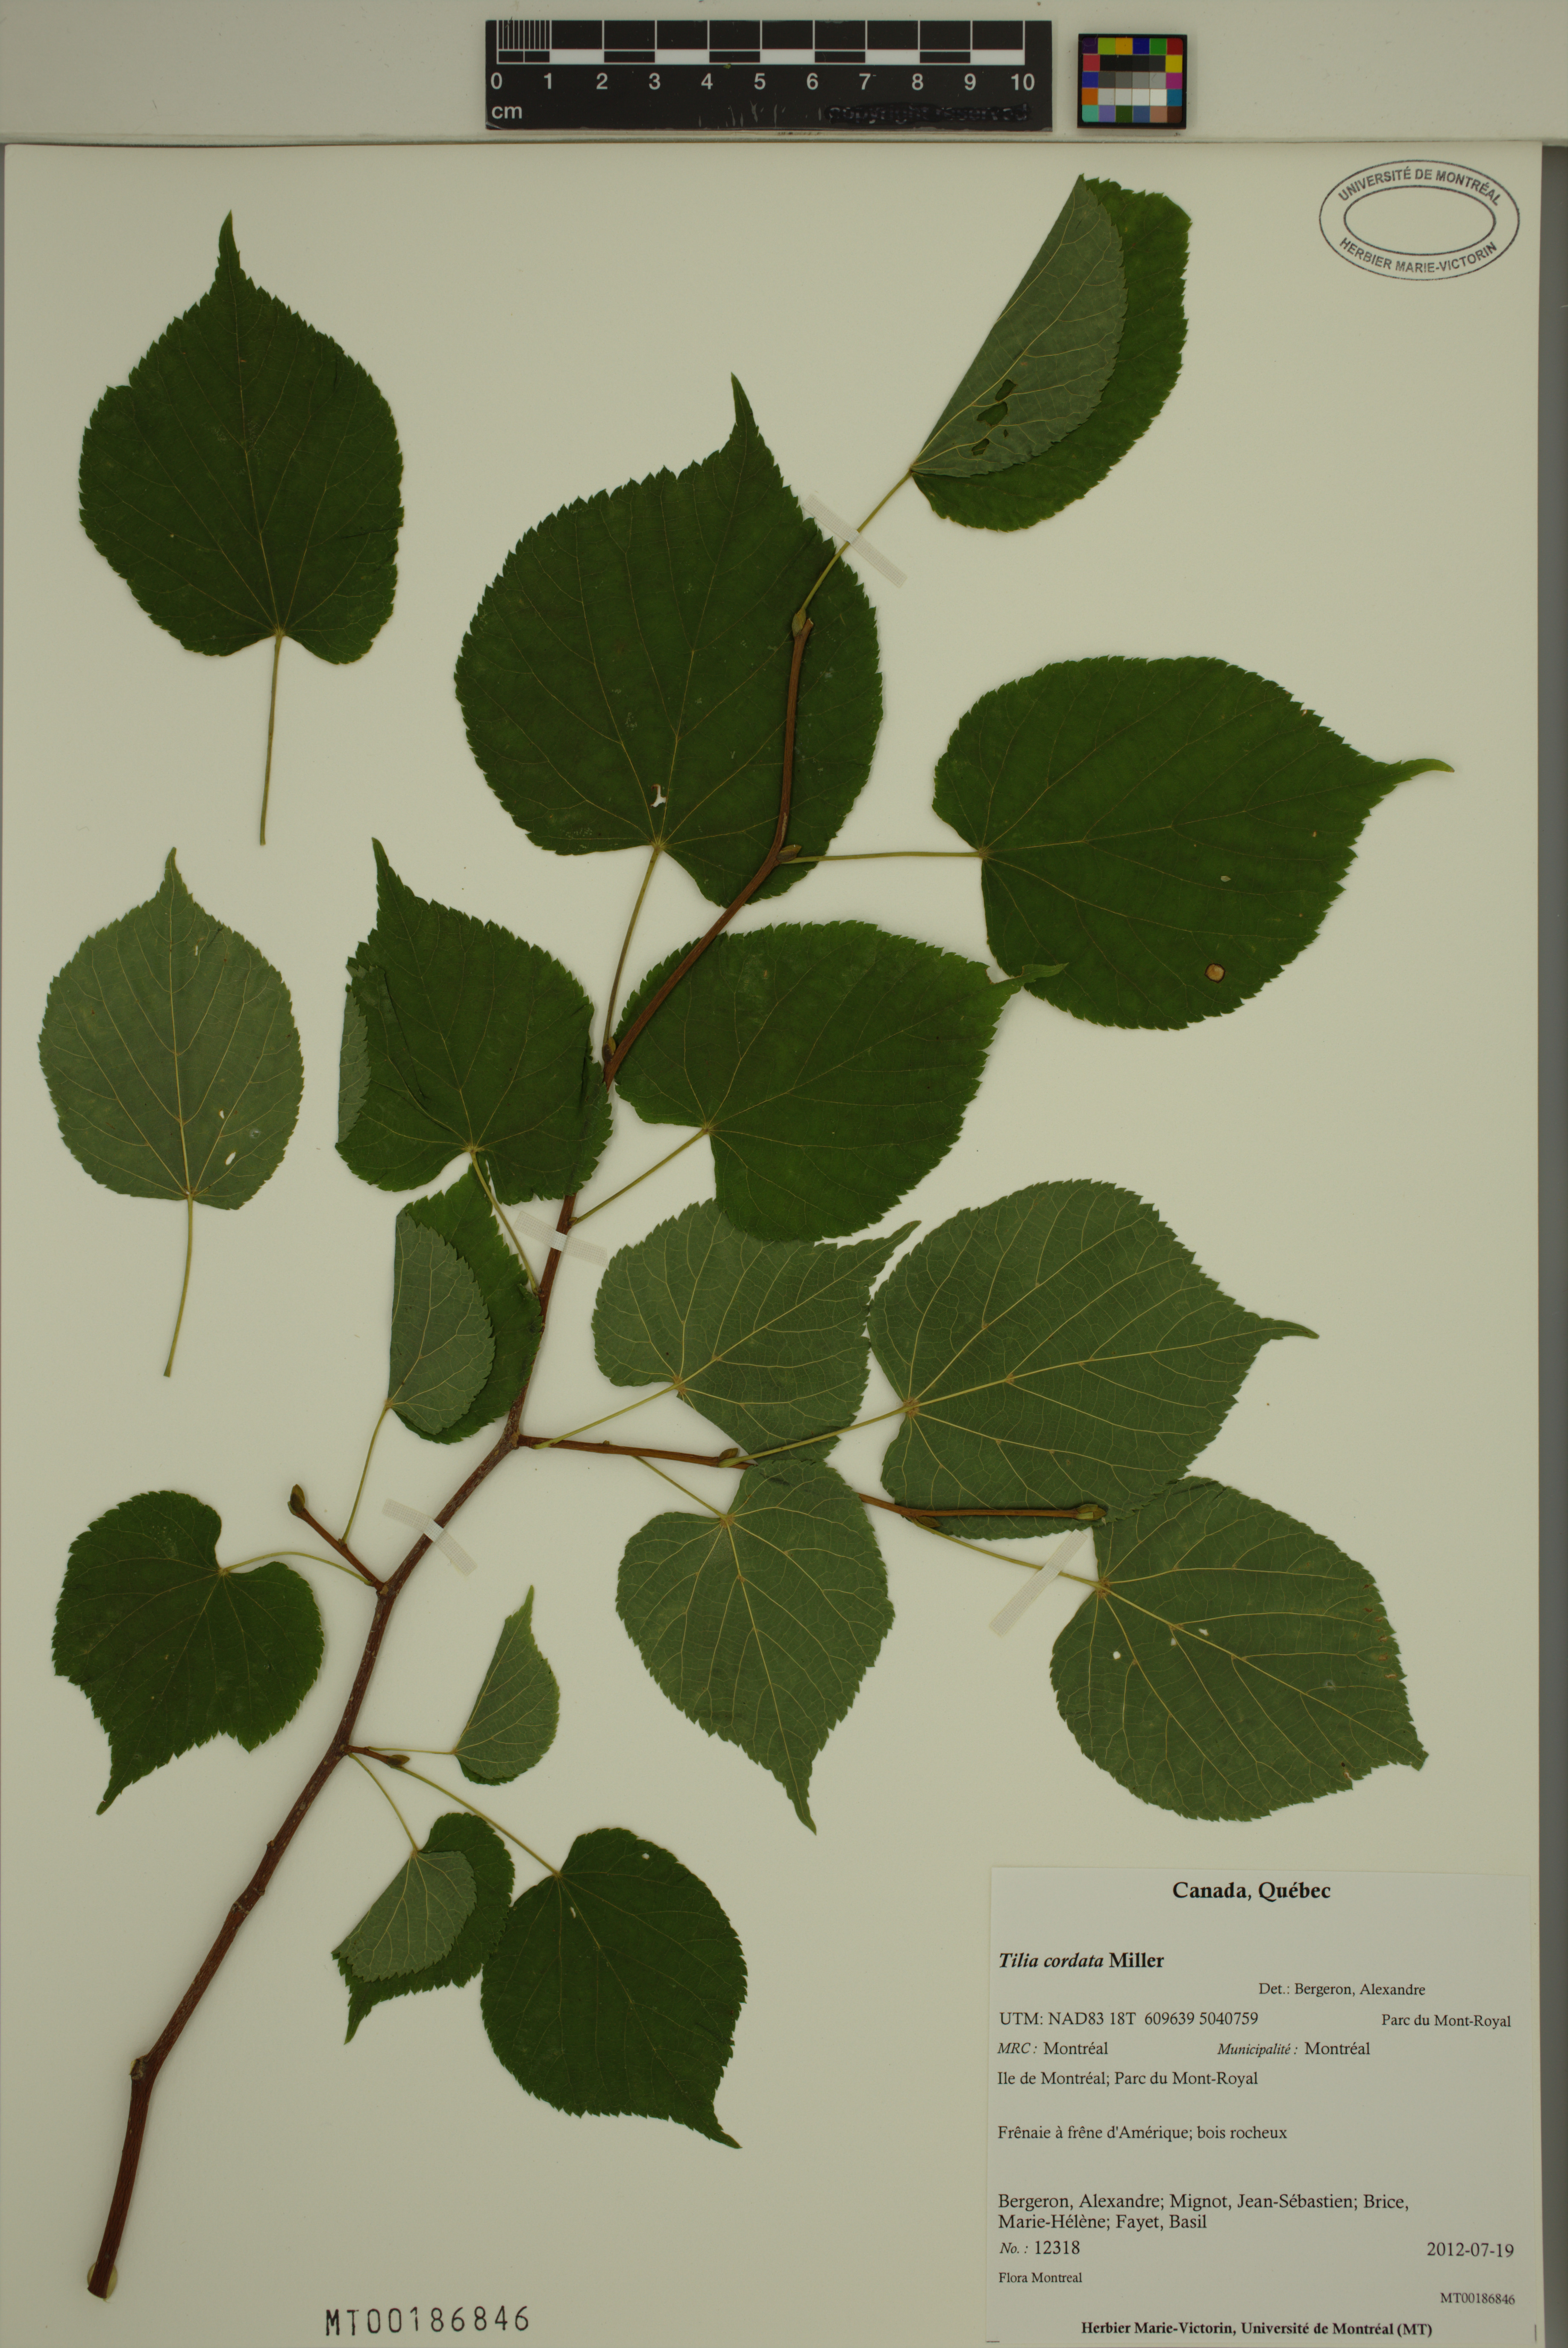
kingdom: Plantae
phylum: Tracheophyta
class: Magnoliopsida
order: Malvales
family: Malvaceae
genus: Tilia
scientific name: Tilia cordata
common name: Small-leaved lime
